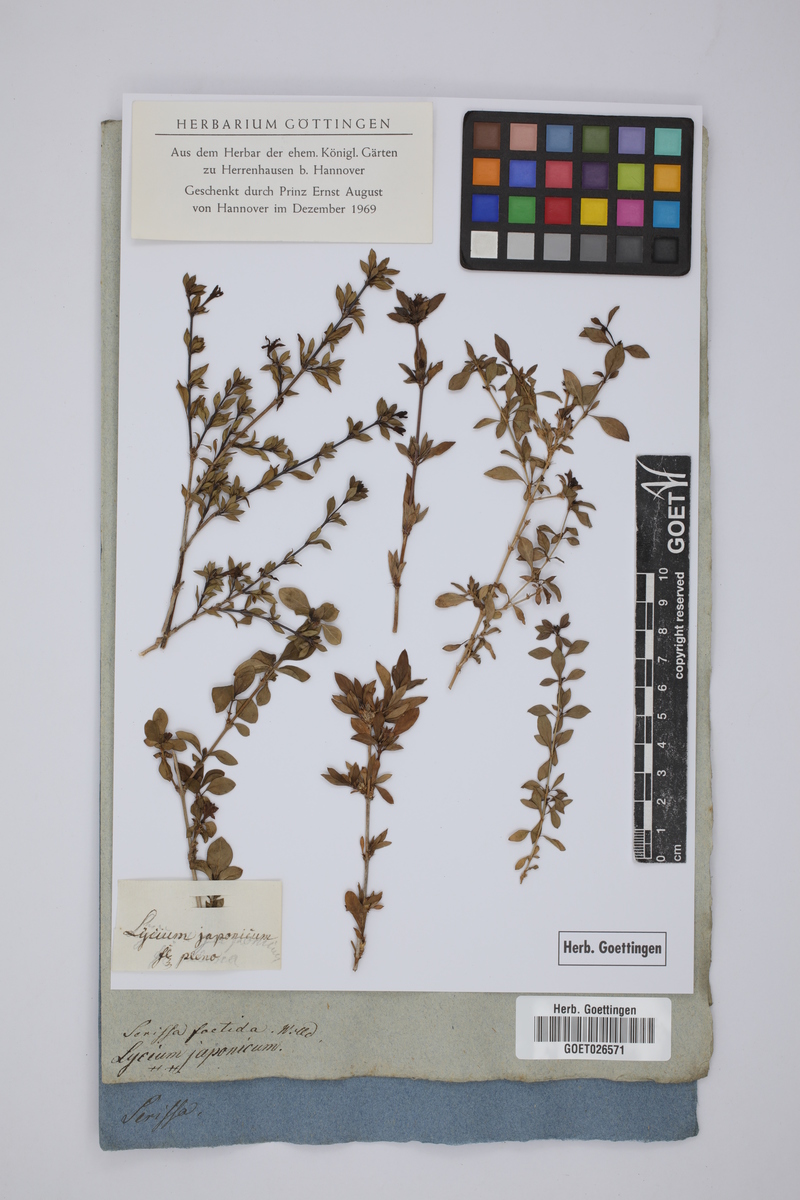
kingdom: Plantae
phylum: Tracheophyta
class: Magnoliopsida
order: Gentianales
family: Rubiaceae
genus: Buchozia
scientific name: Buchozia japonica
